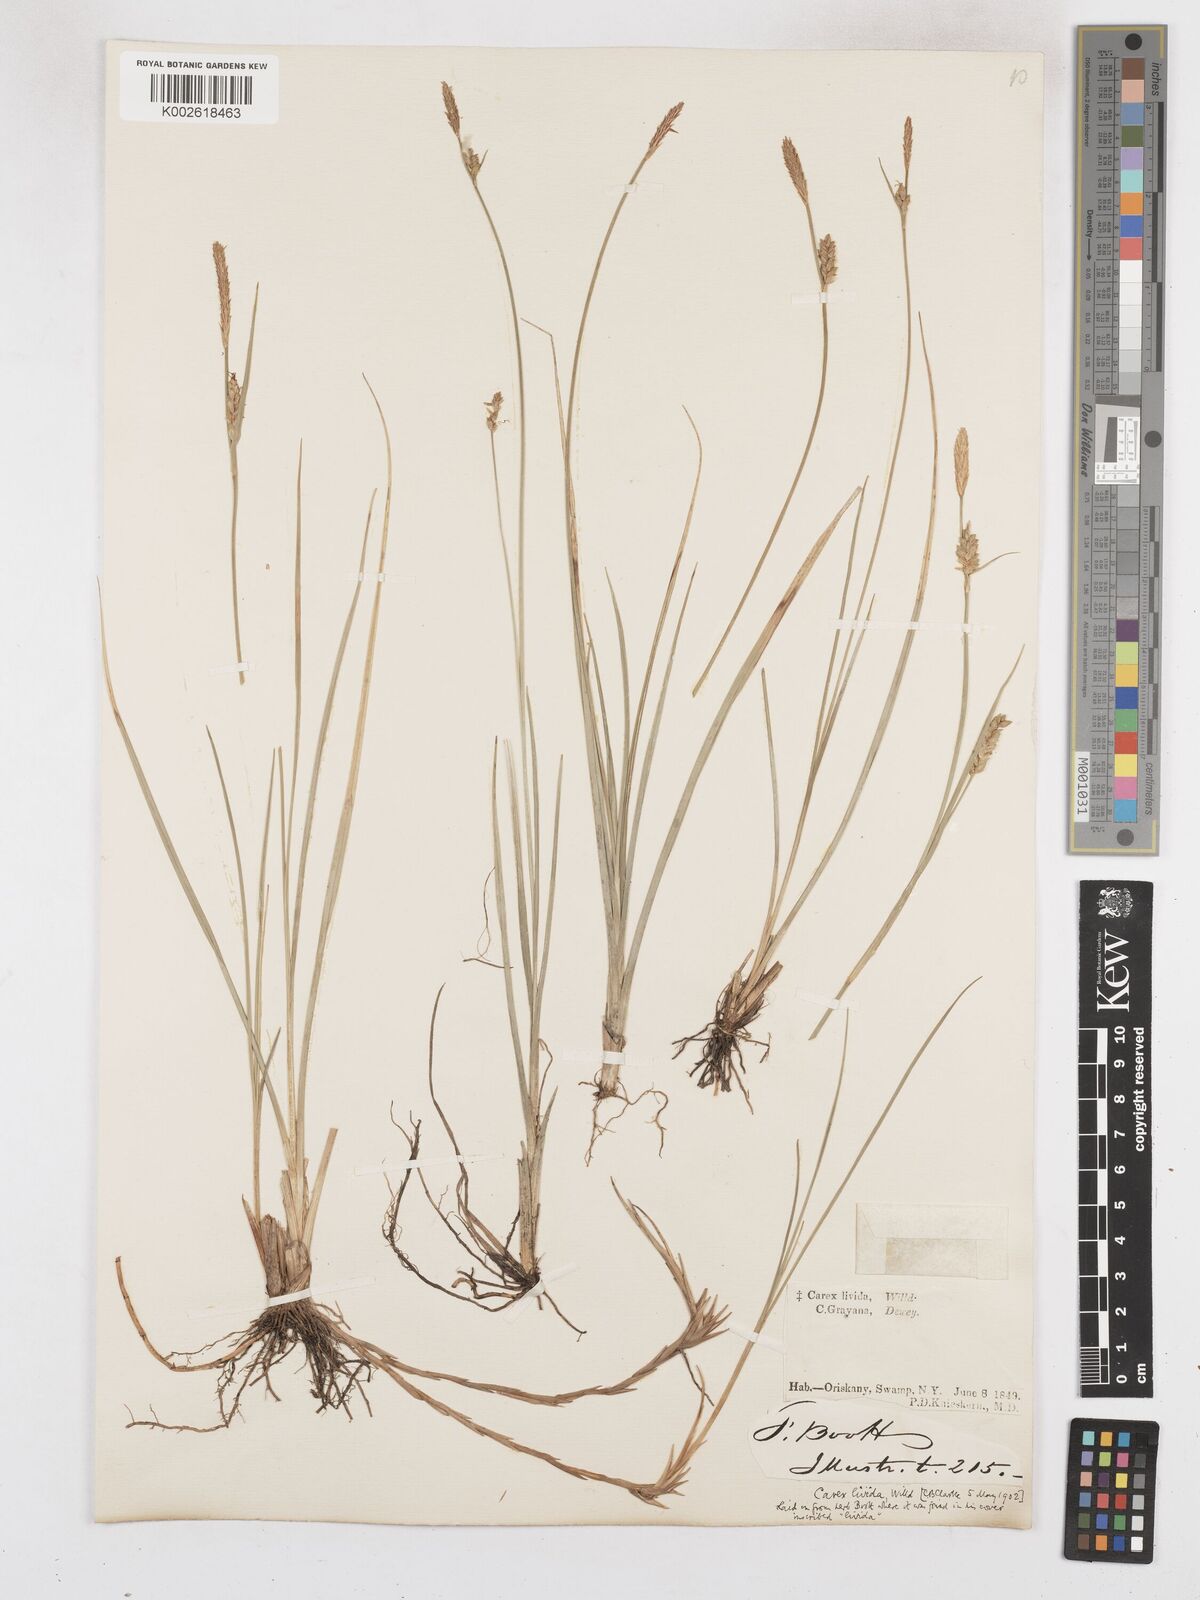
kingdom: Plantae
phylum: Tracheophyta
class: Liliopsida
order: Poales
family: Cyperaceae
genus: Carex
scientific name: Carex livida
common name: Livid sedge
